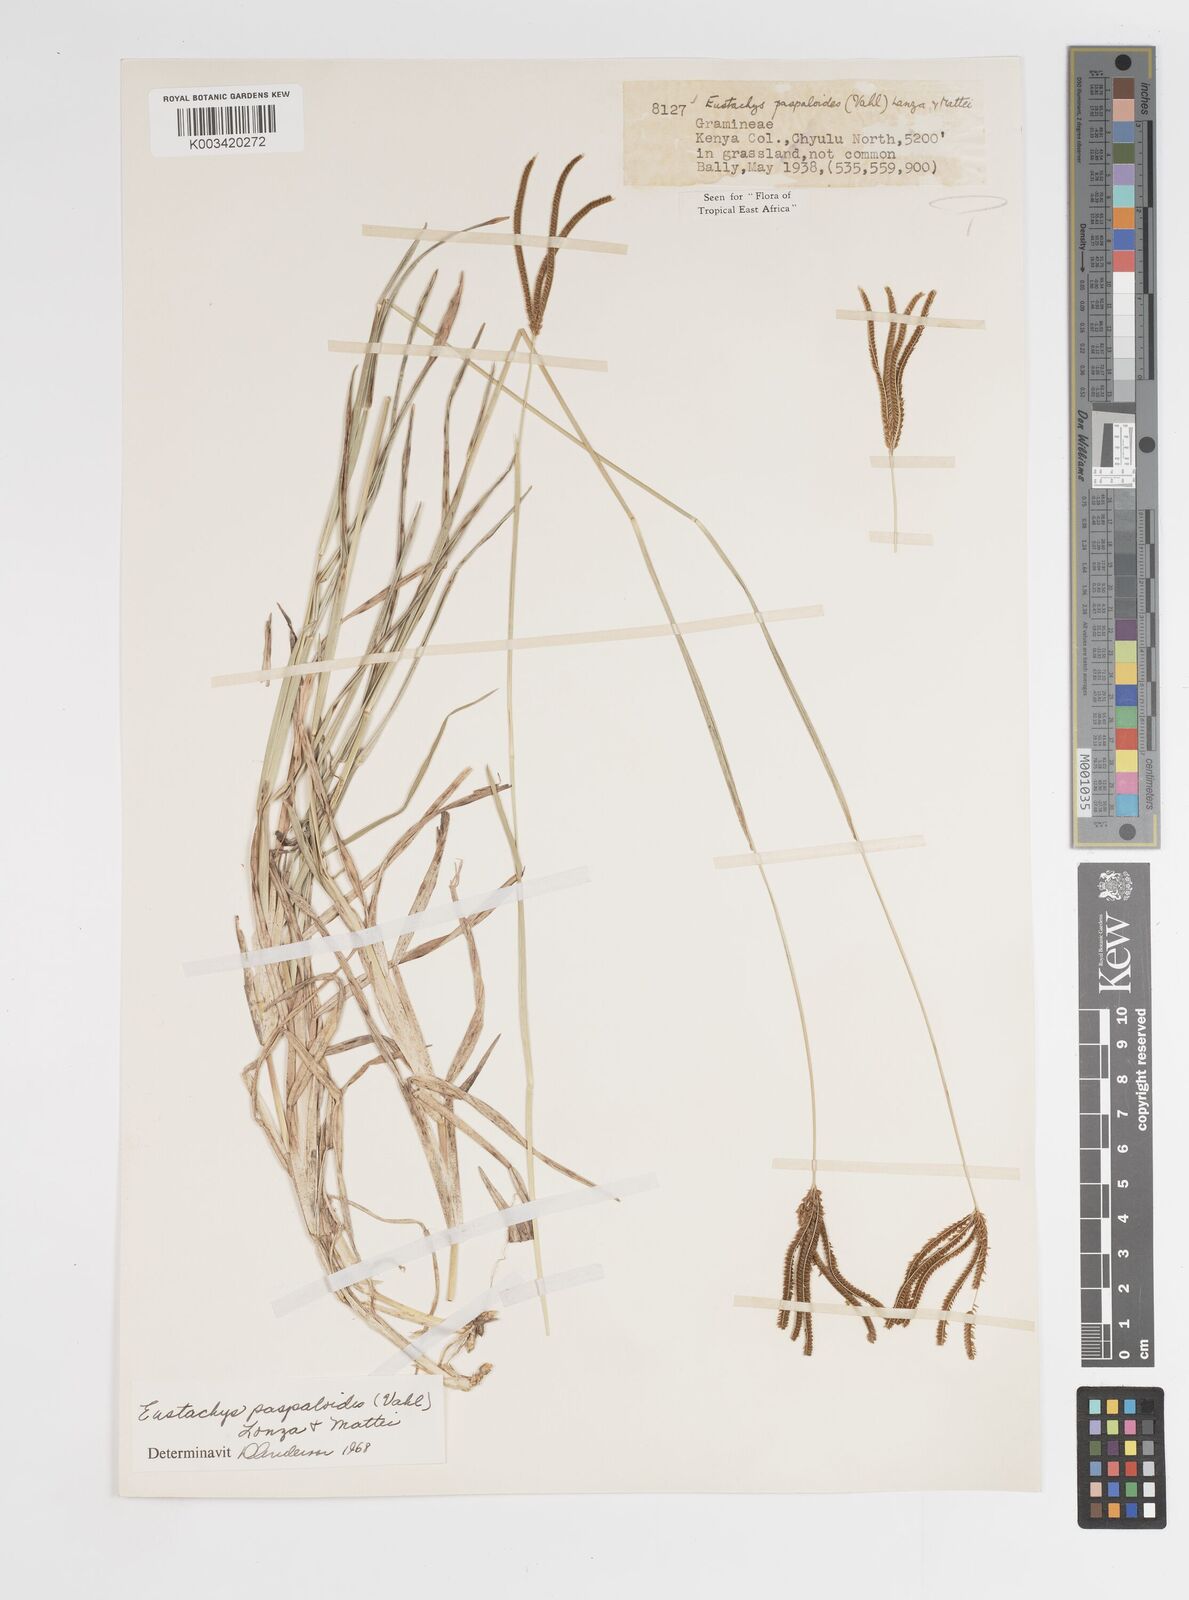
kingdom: Plantae
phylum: Tracheophyta
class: Liliopsida
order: Poales
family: Poaceae
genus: Eustachys
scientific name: Eustachys paspaloides
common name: Caribbean fingergrass
